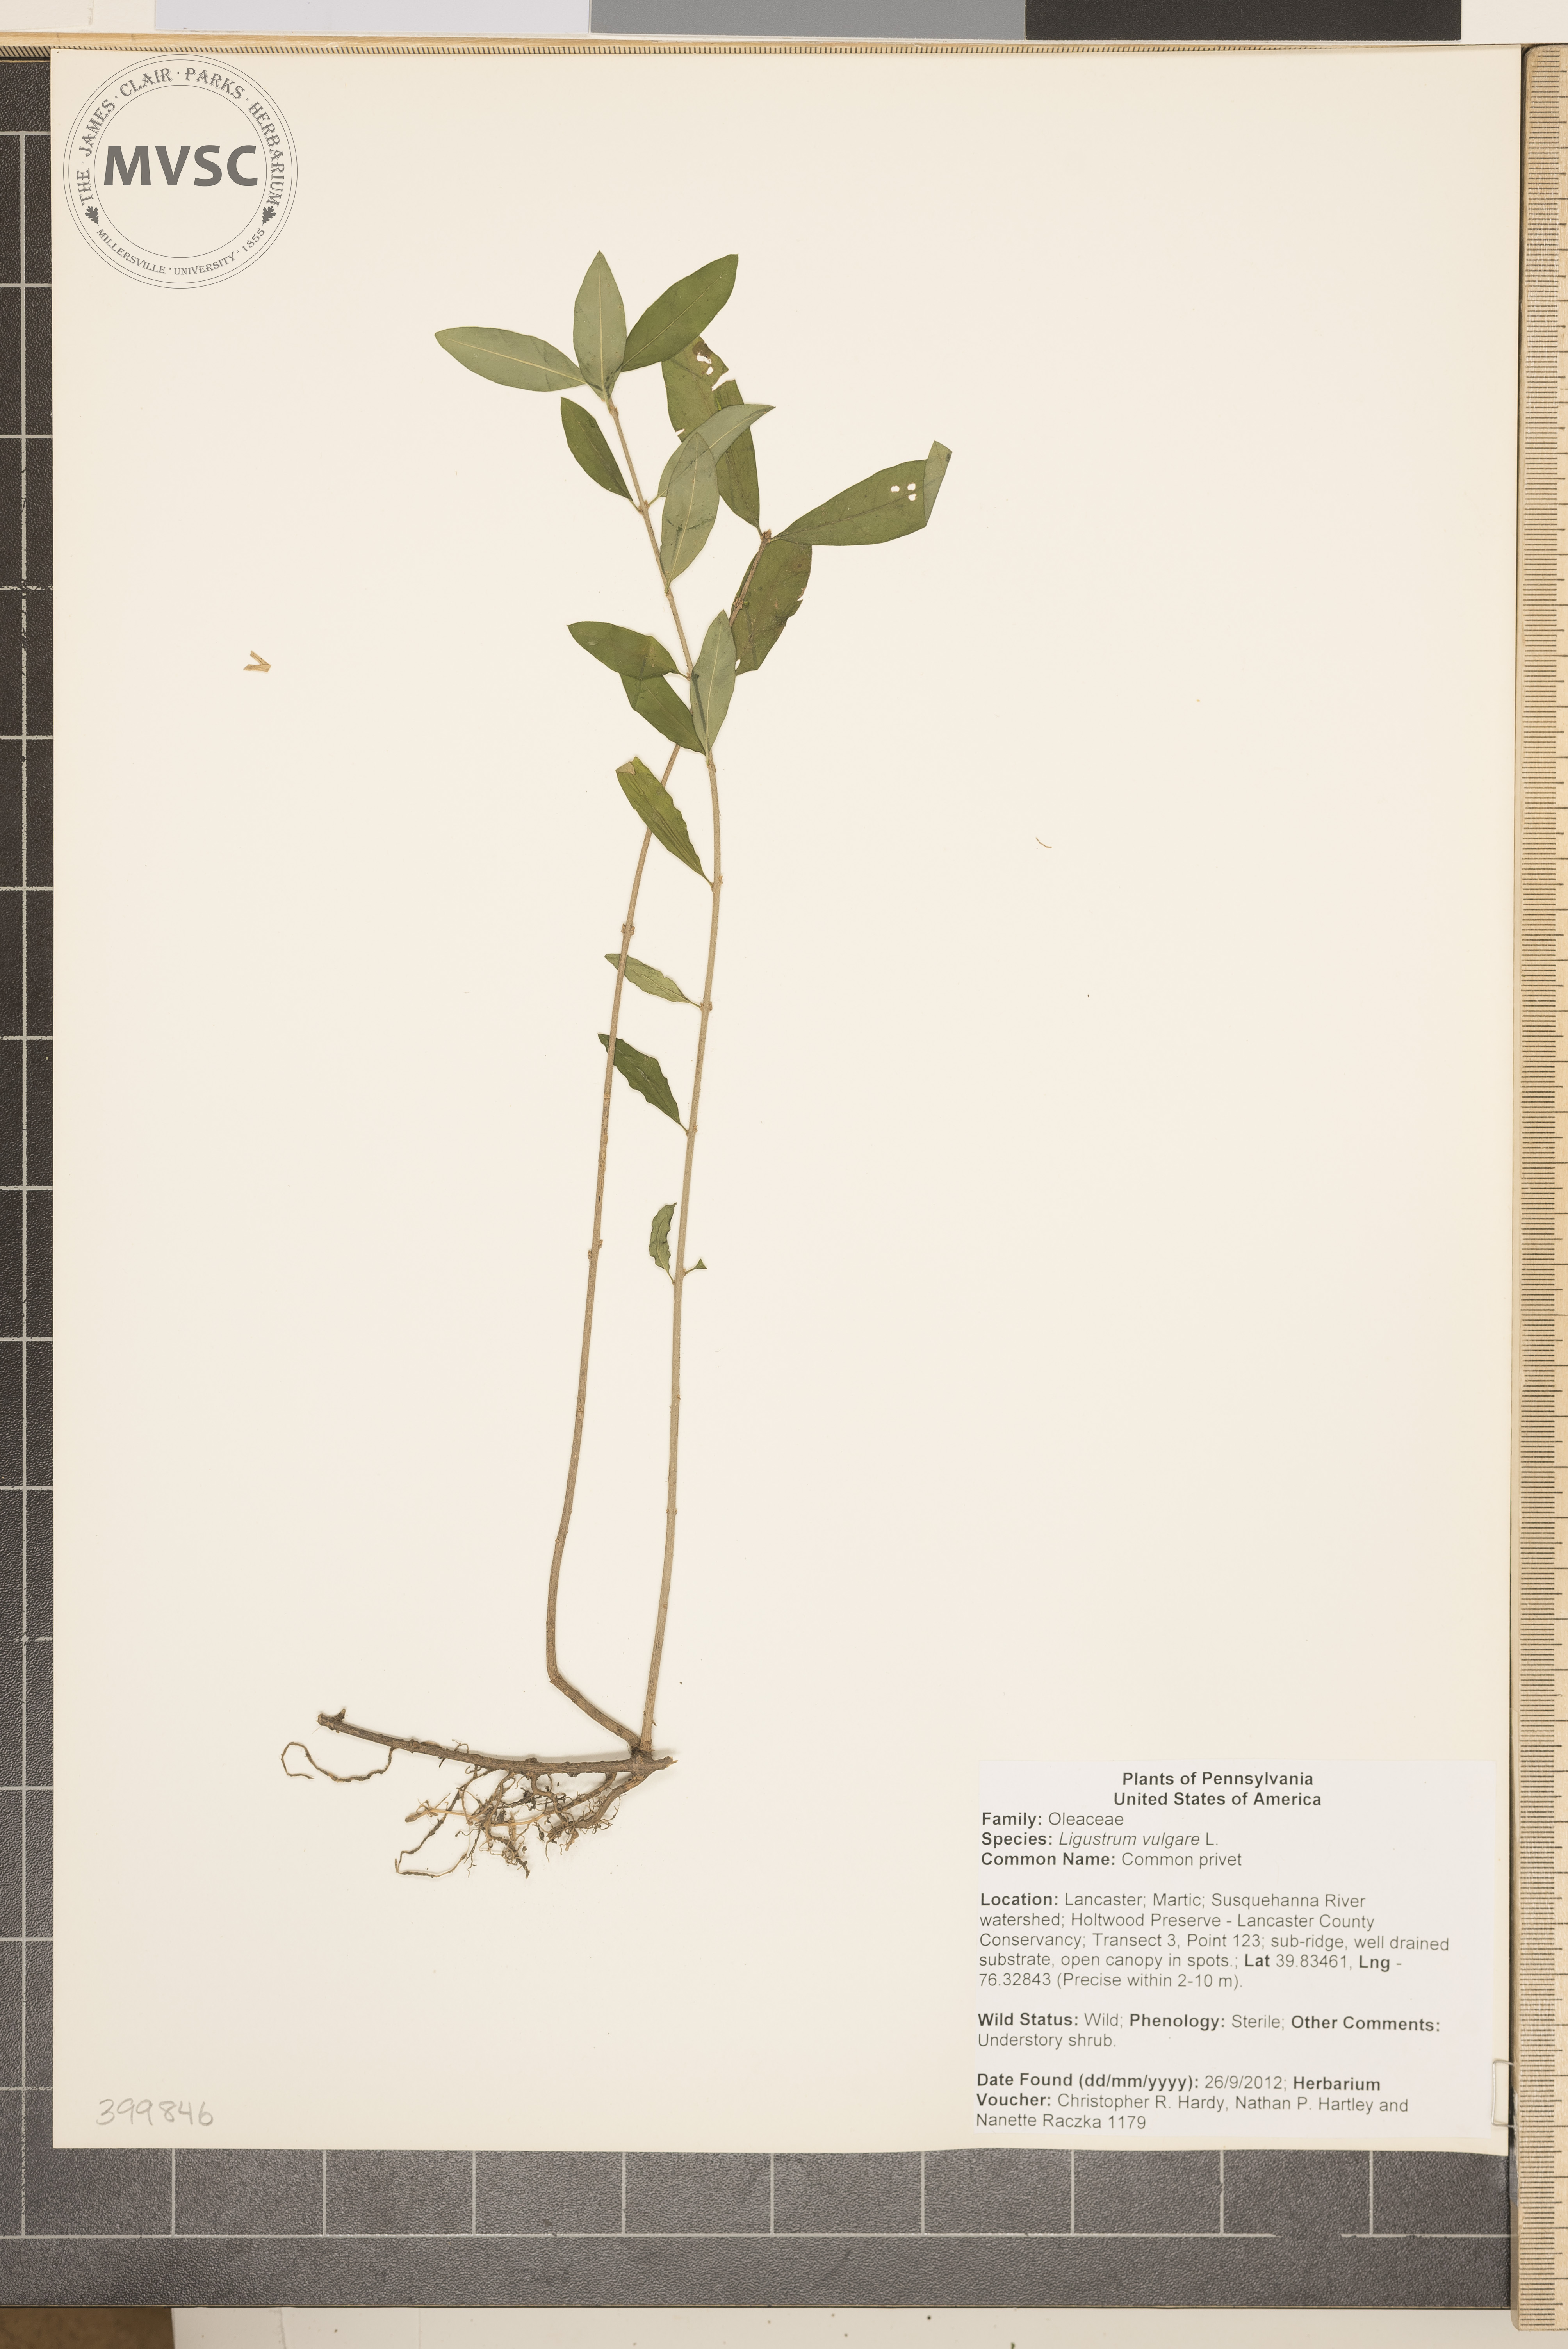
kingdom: Plantae
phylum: Tracheophyta
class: Magnoliopsida
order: Lamiales
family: Oleaceae
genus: Ligustrum
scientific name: Ligustrum vulgare
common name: Common privet
